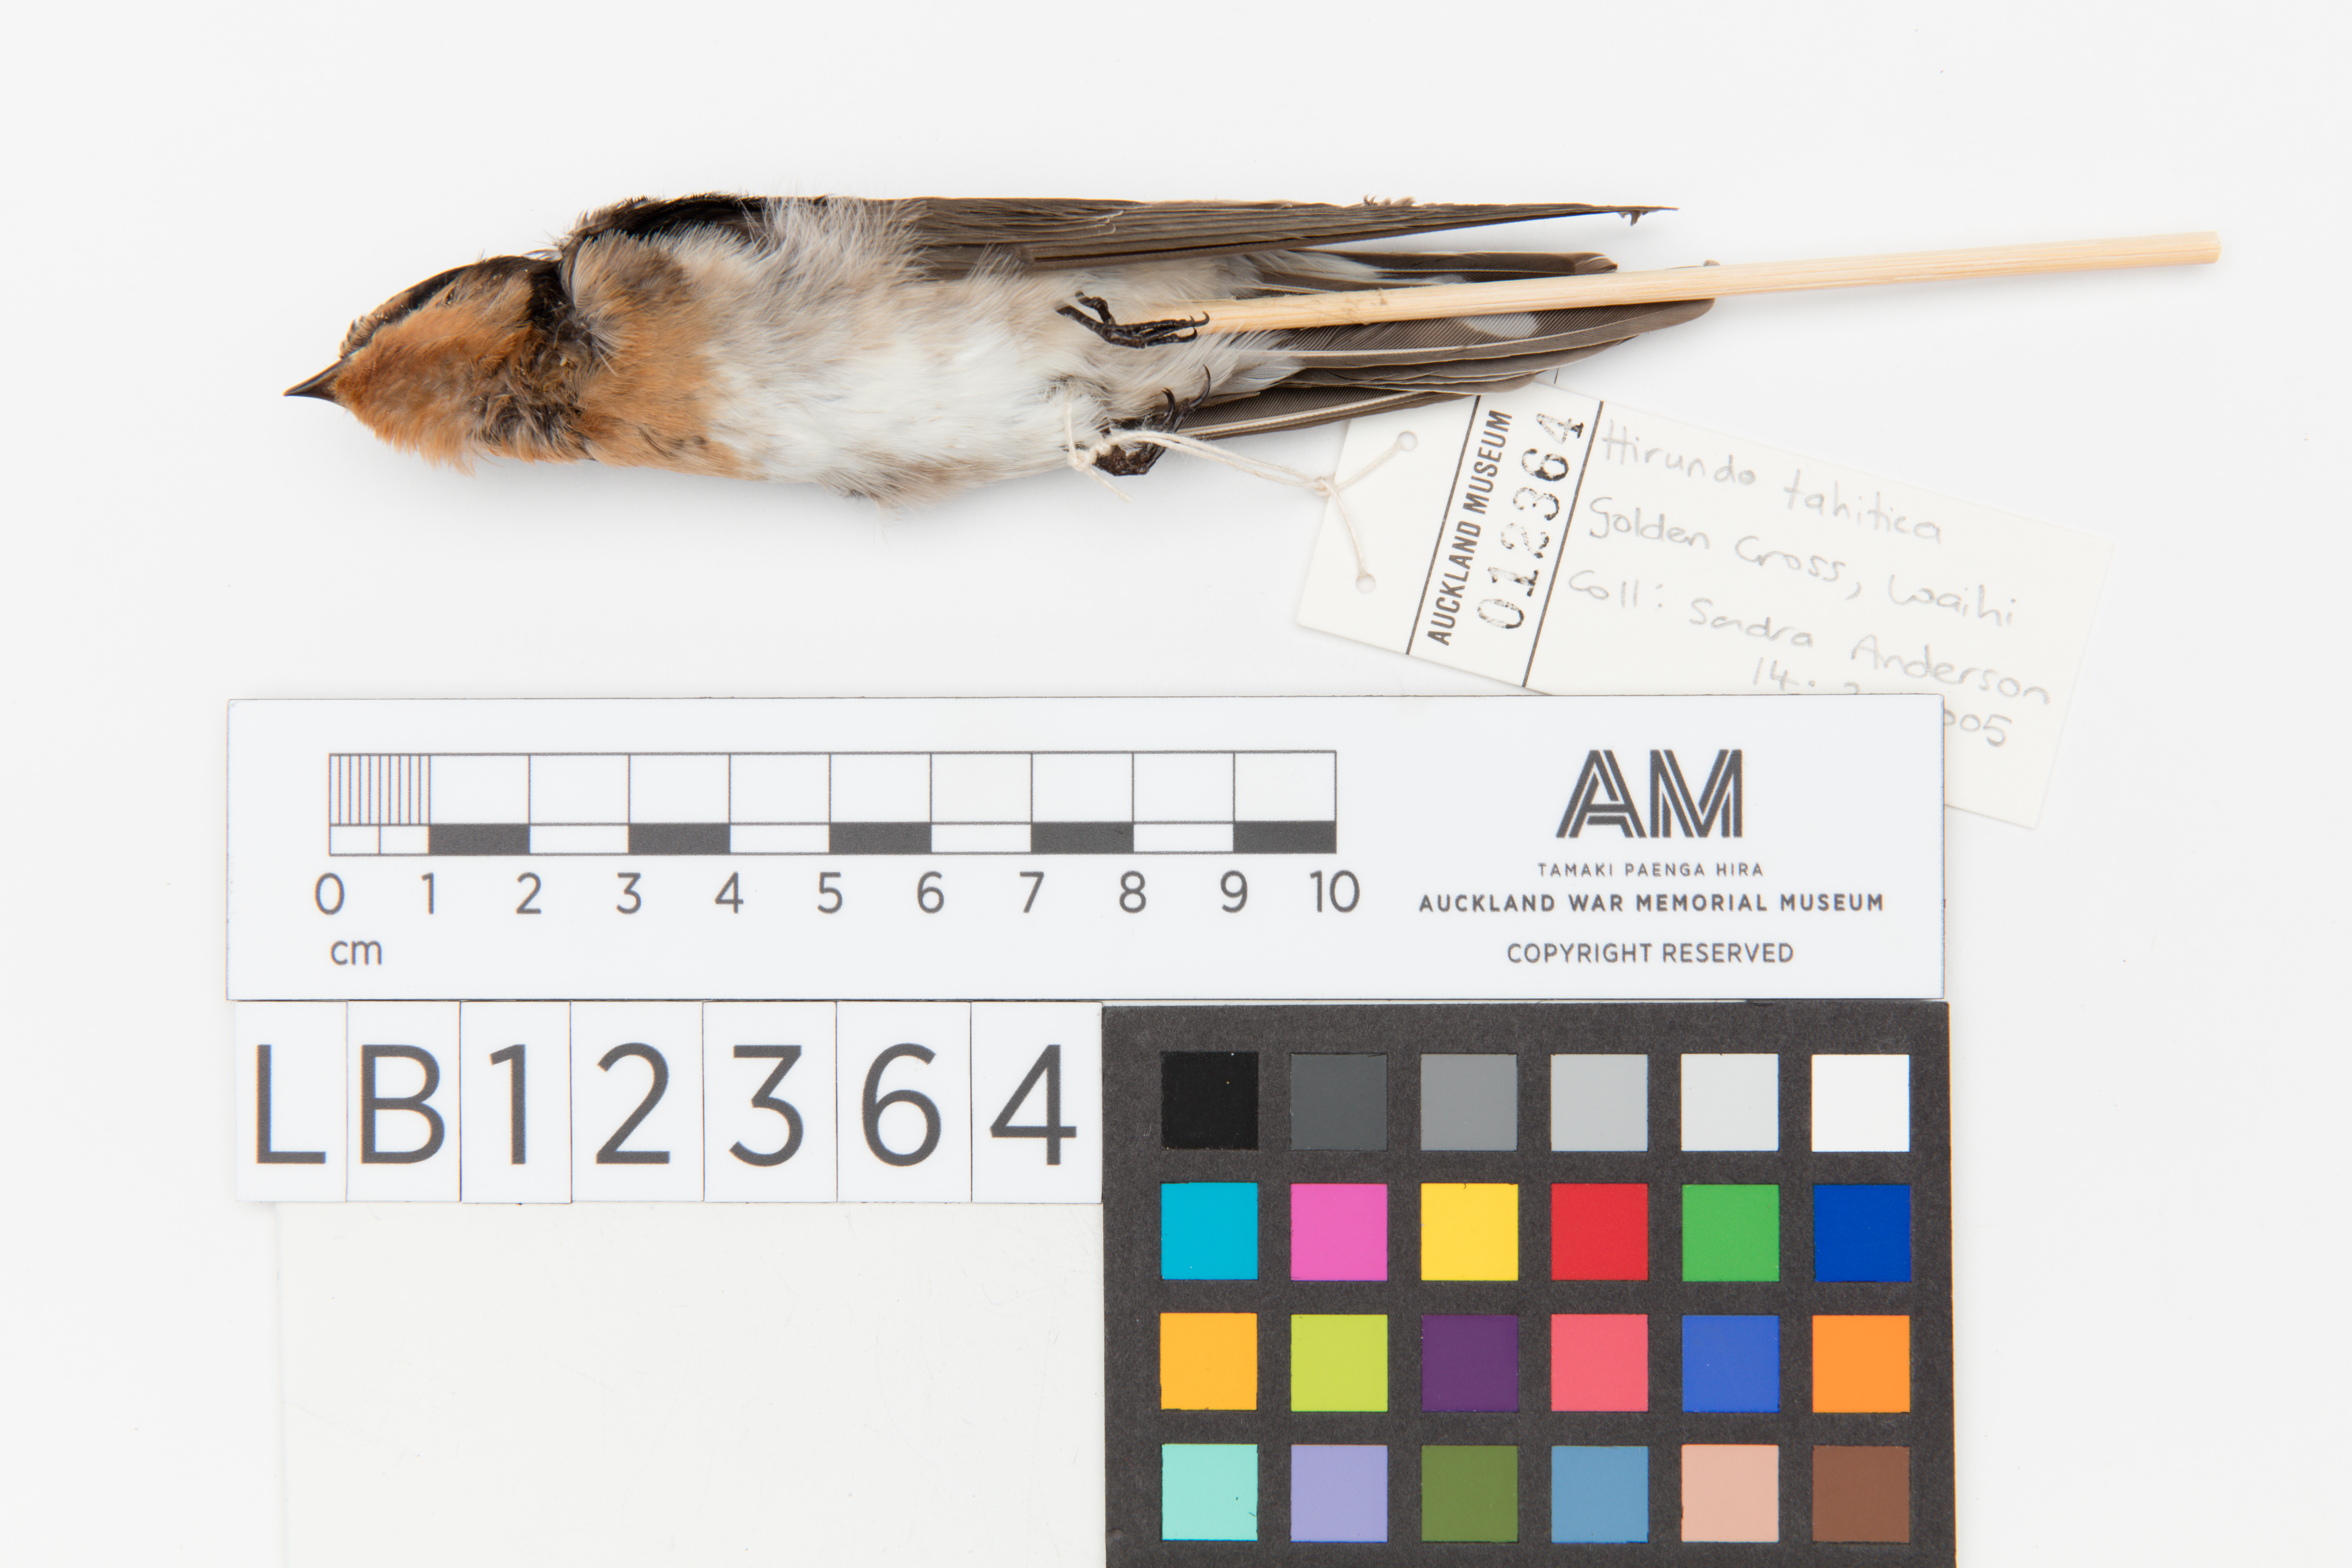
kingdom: Animalia
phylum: Chordata
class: Aves
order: Passeriformes
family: Hirundinidae
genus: Hirundo
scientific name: Hirundo neoxena
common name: Welcome swallow
